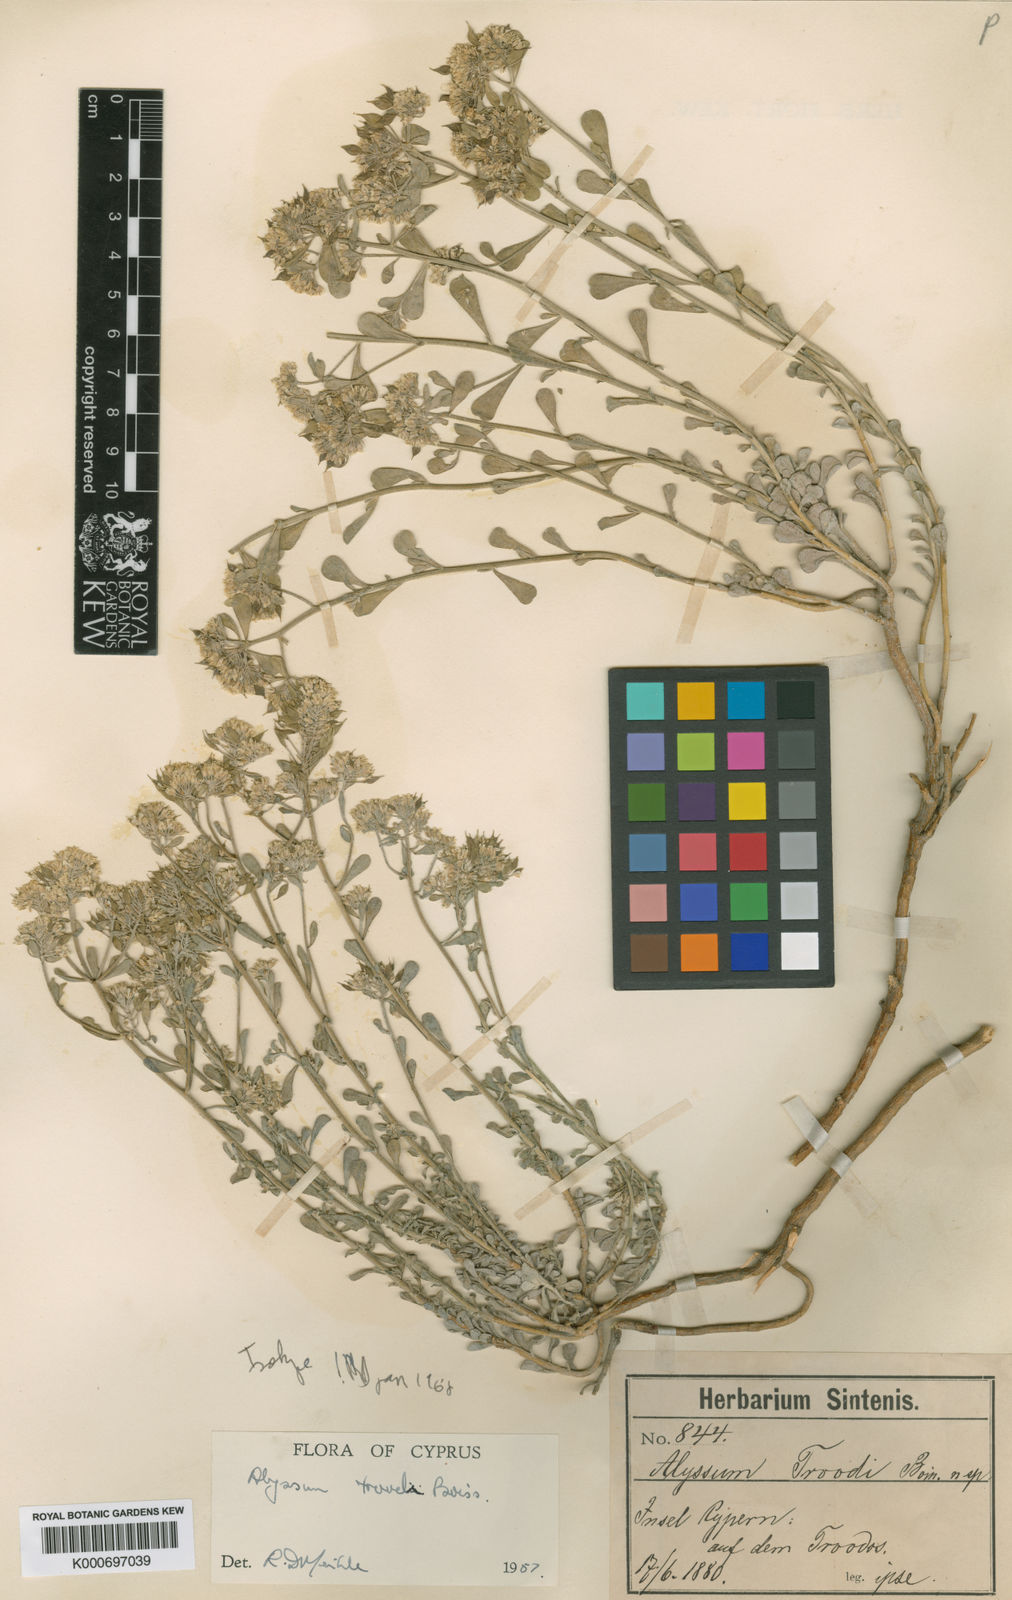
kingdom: Plantae
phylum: Tracheophyta
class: Magnoliopsida
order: Brassicales
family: Brassicaceae
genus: Odontarrhena
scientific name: Odontarrhena troodi
